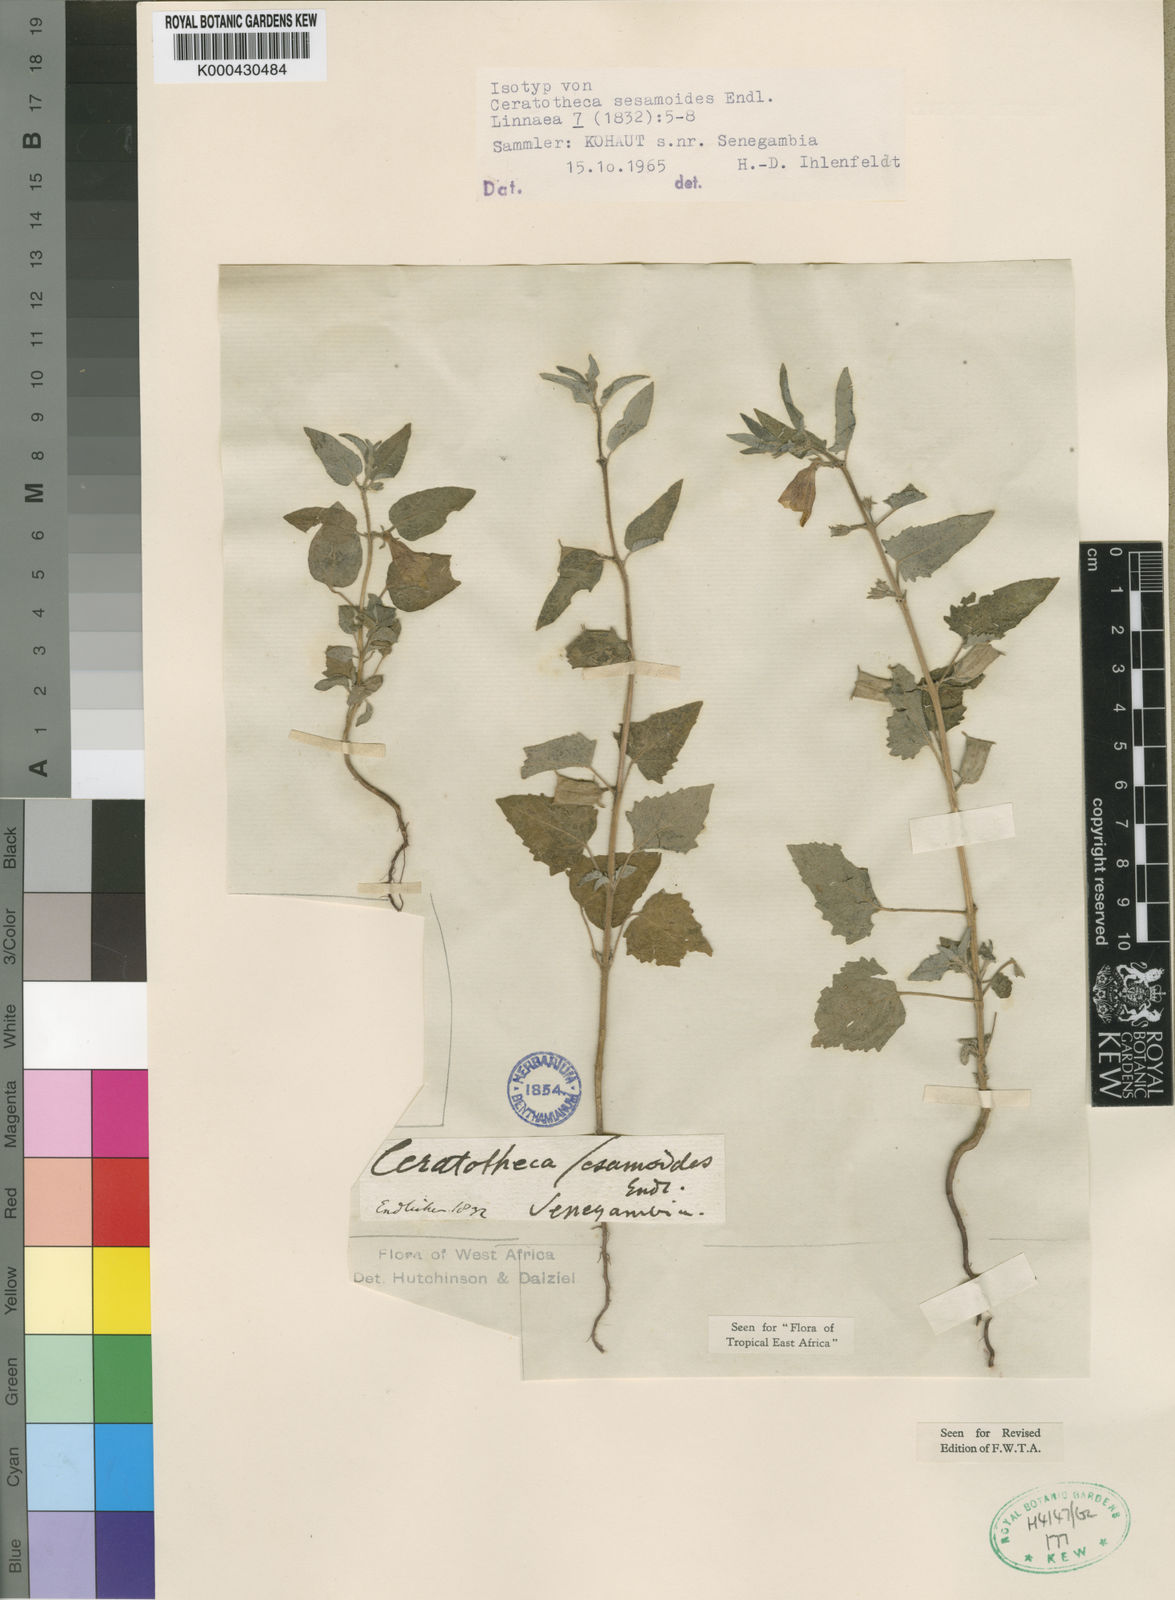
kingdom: Plantae
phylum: Tracheophyta
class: Magnoliopsida
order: Lamiales
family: Pedaliaceae
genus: Sesamum
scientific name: Sesamum sesamoides
